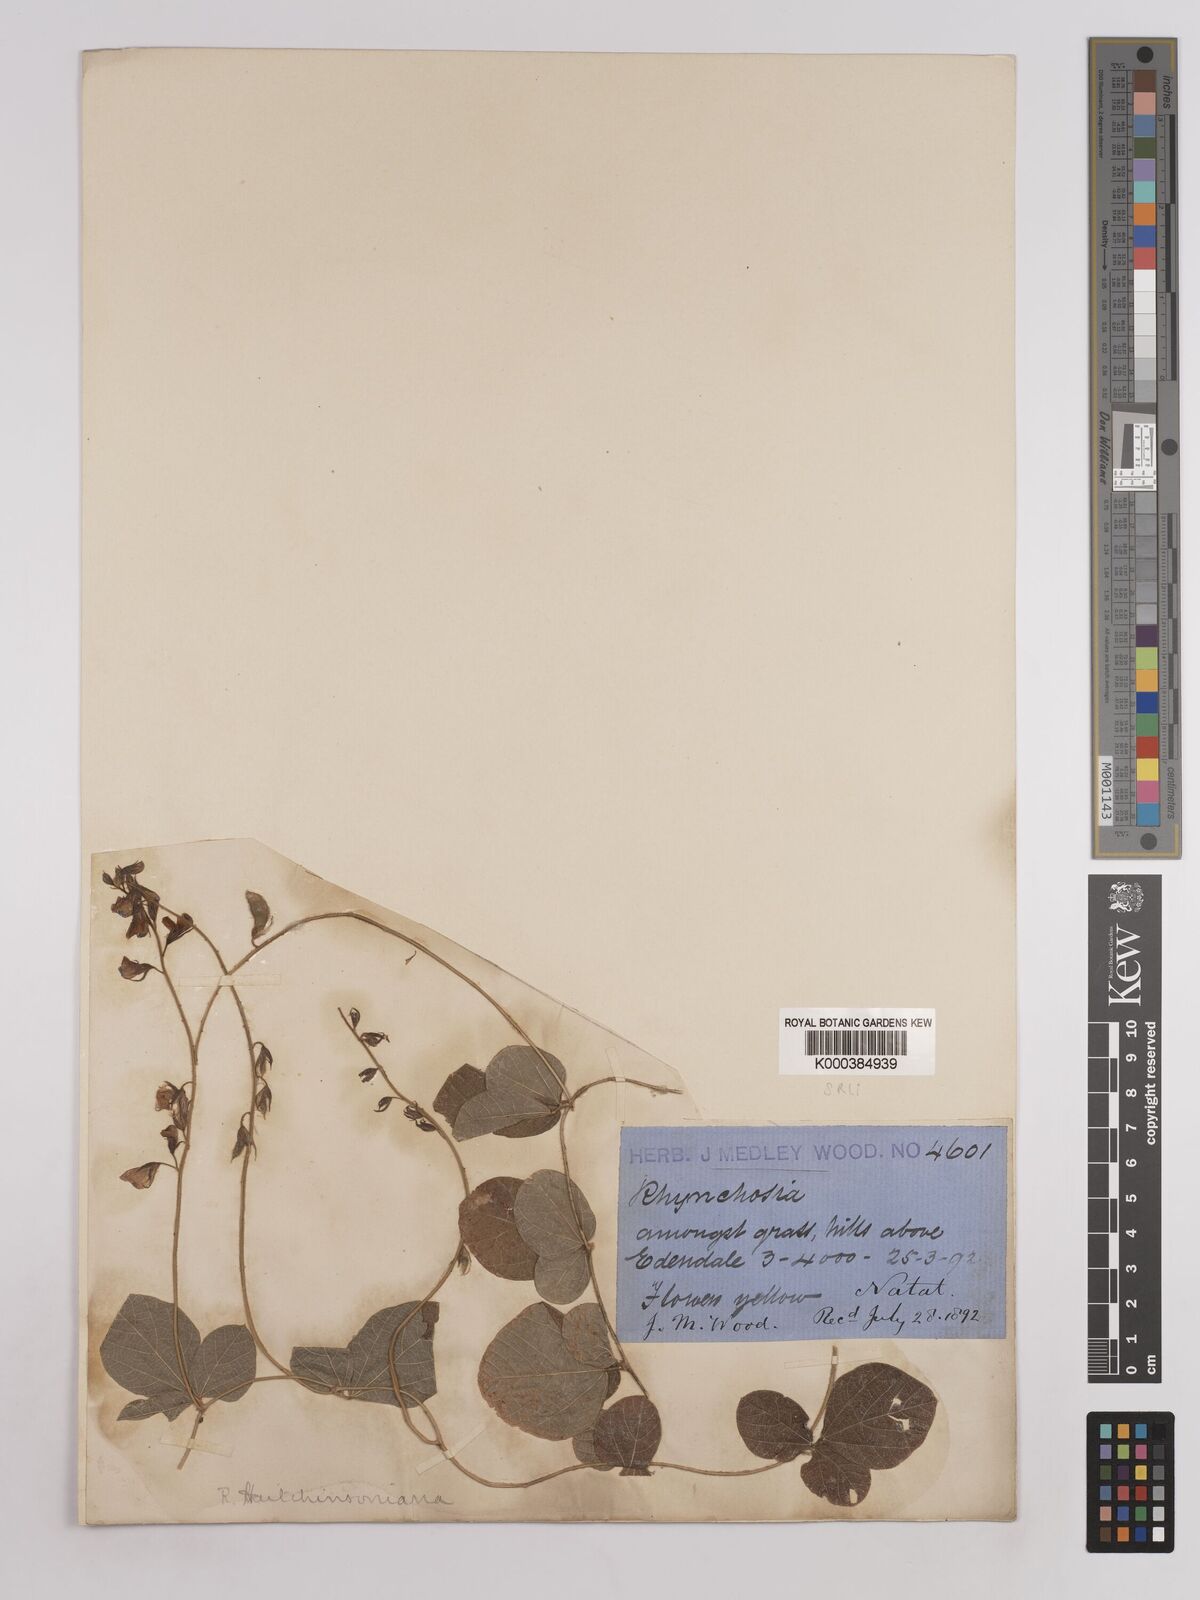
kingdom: Plantae
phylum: Tracheophyta
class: Magnoliopsida
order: Fabales
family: Fabaceae
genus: Rhynchosia
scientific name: Rhynchosia pentheri
